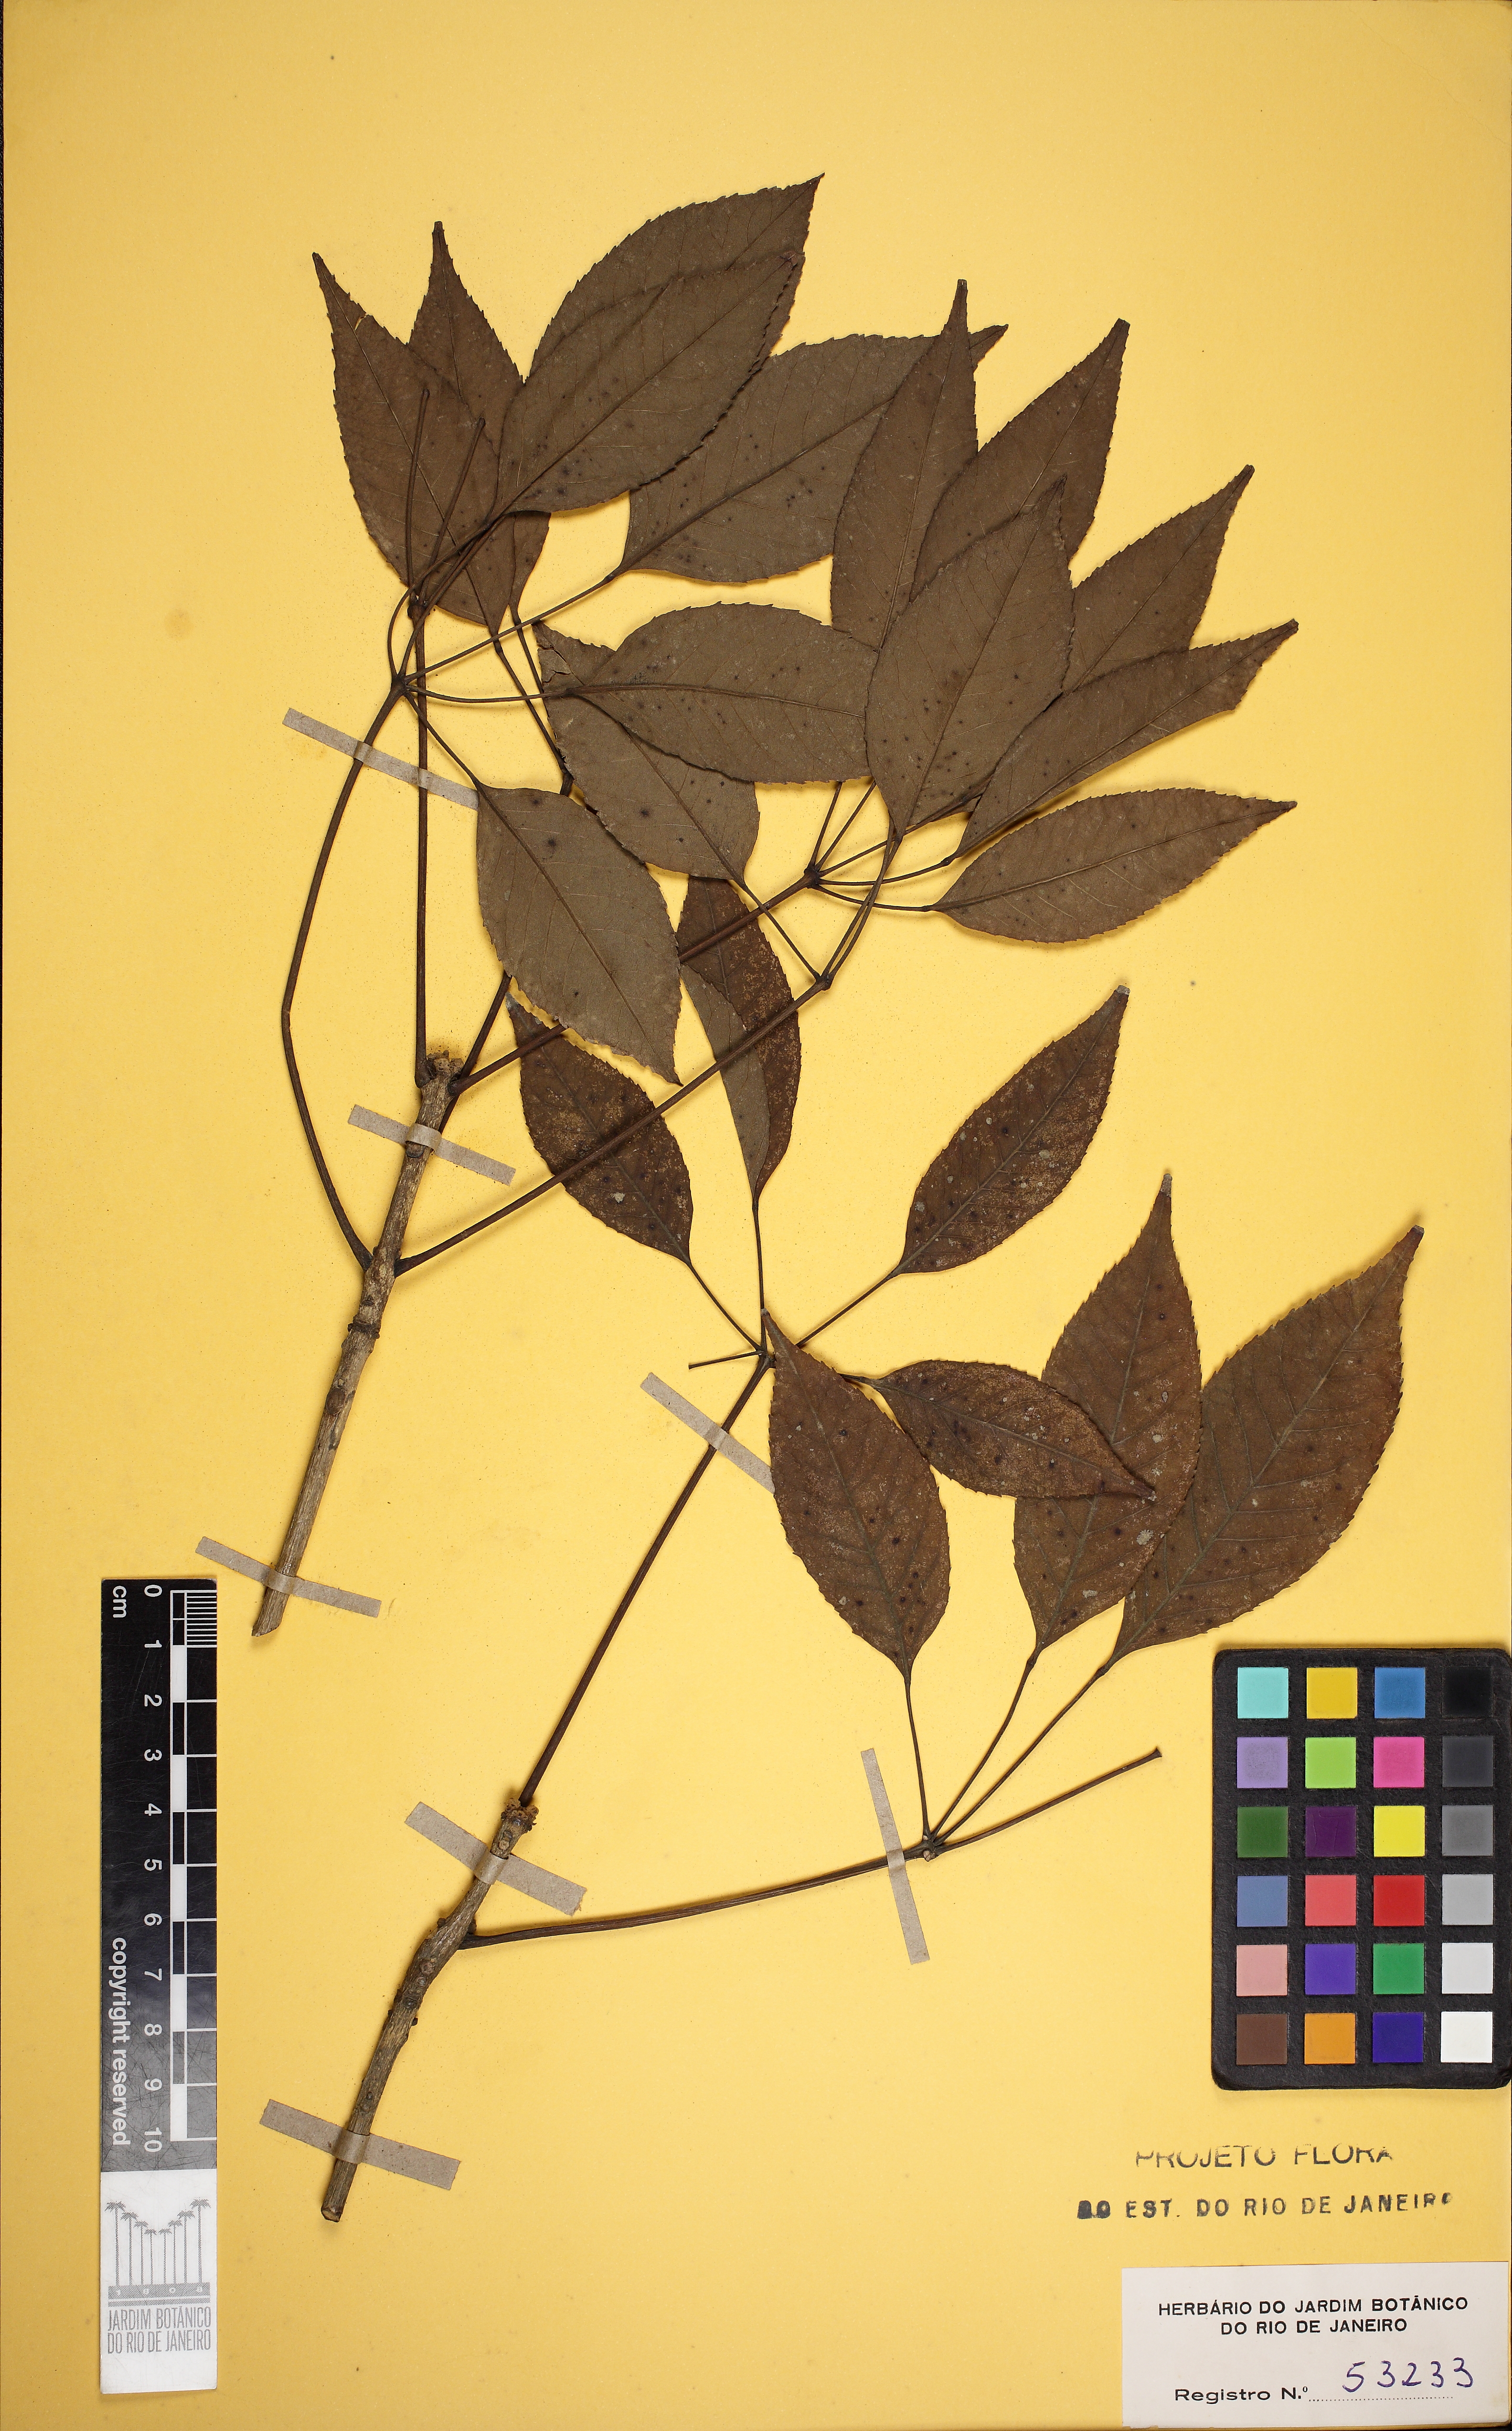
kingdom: Plantae
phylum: Tracheophyta
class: Magnoliopsida
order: Lamiales
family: Bignoniaceae
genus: Handroanthus
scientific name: Handroanthus heptaphyllus
